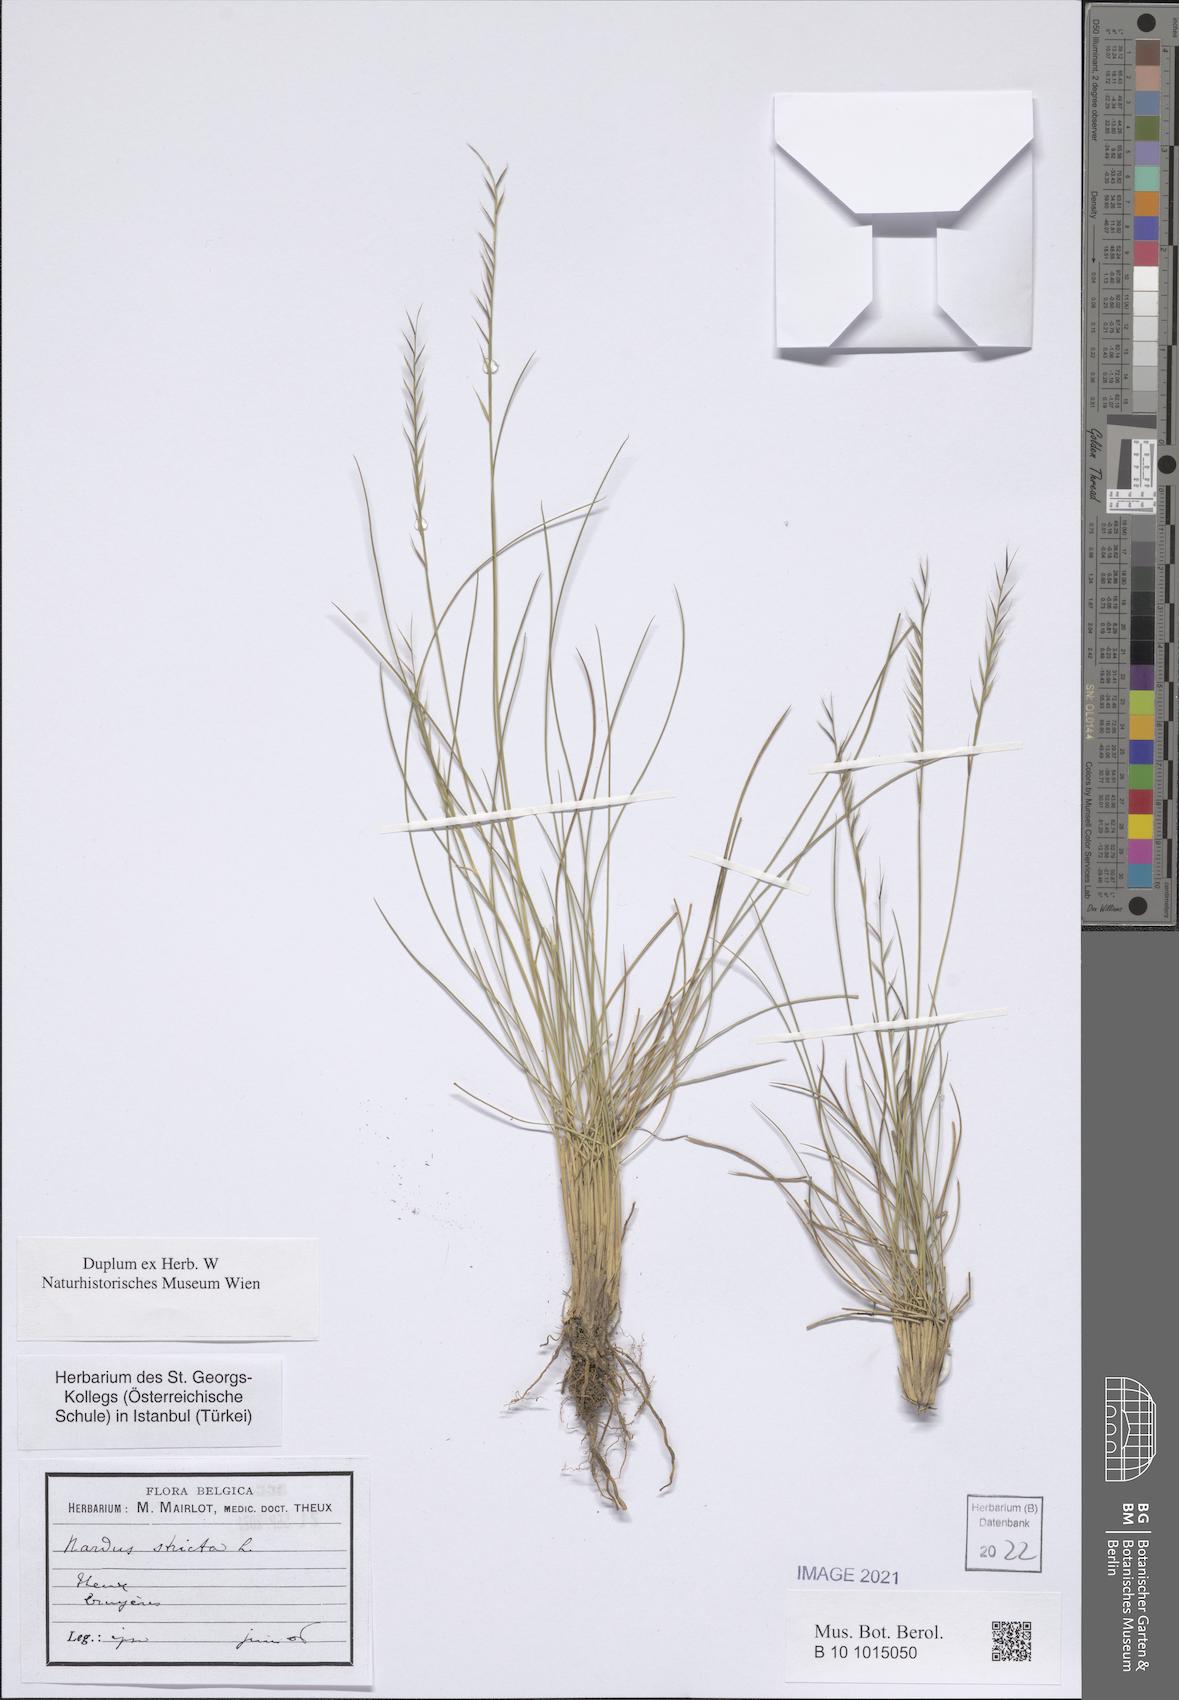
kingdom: Plantae
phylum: Tracheophyta
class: Liliopsida
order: Poales
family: Poaceae
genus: Nardus
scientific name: Nardus stricta
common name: Mat-grass
